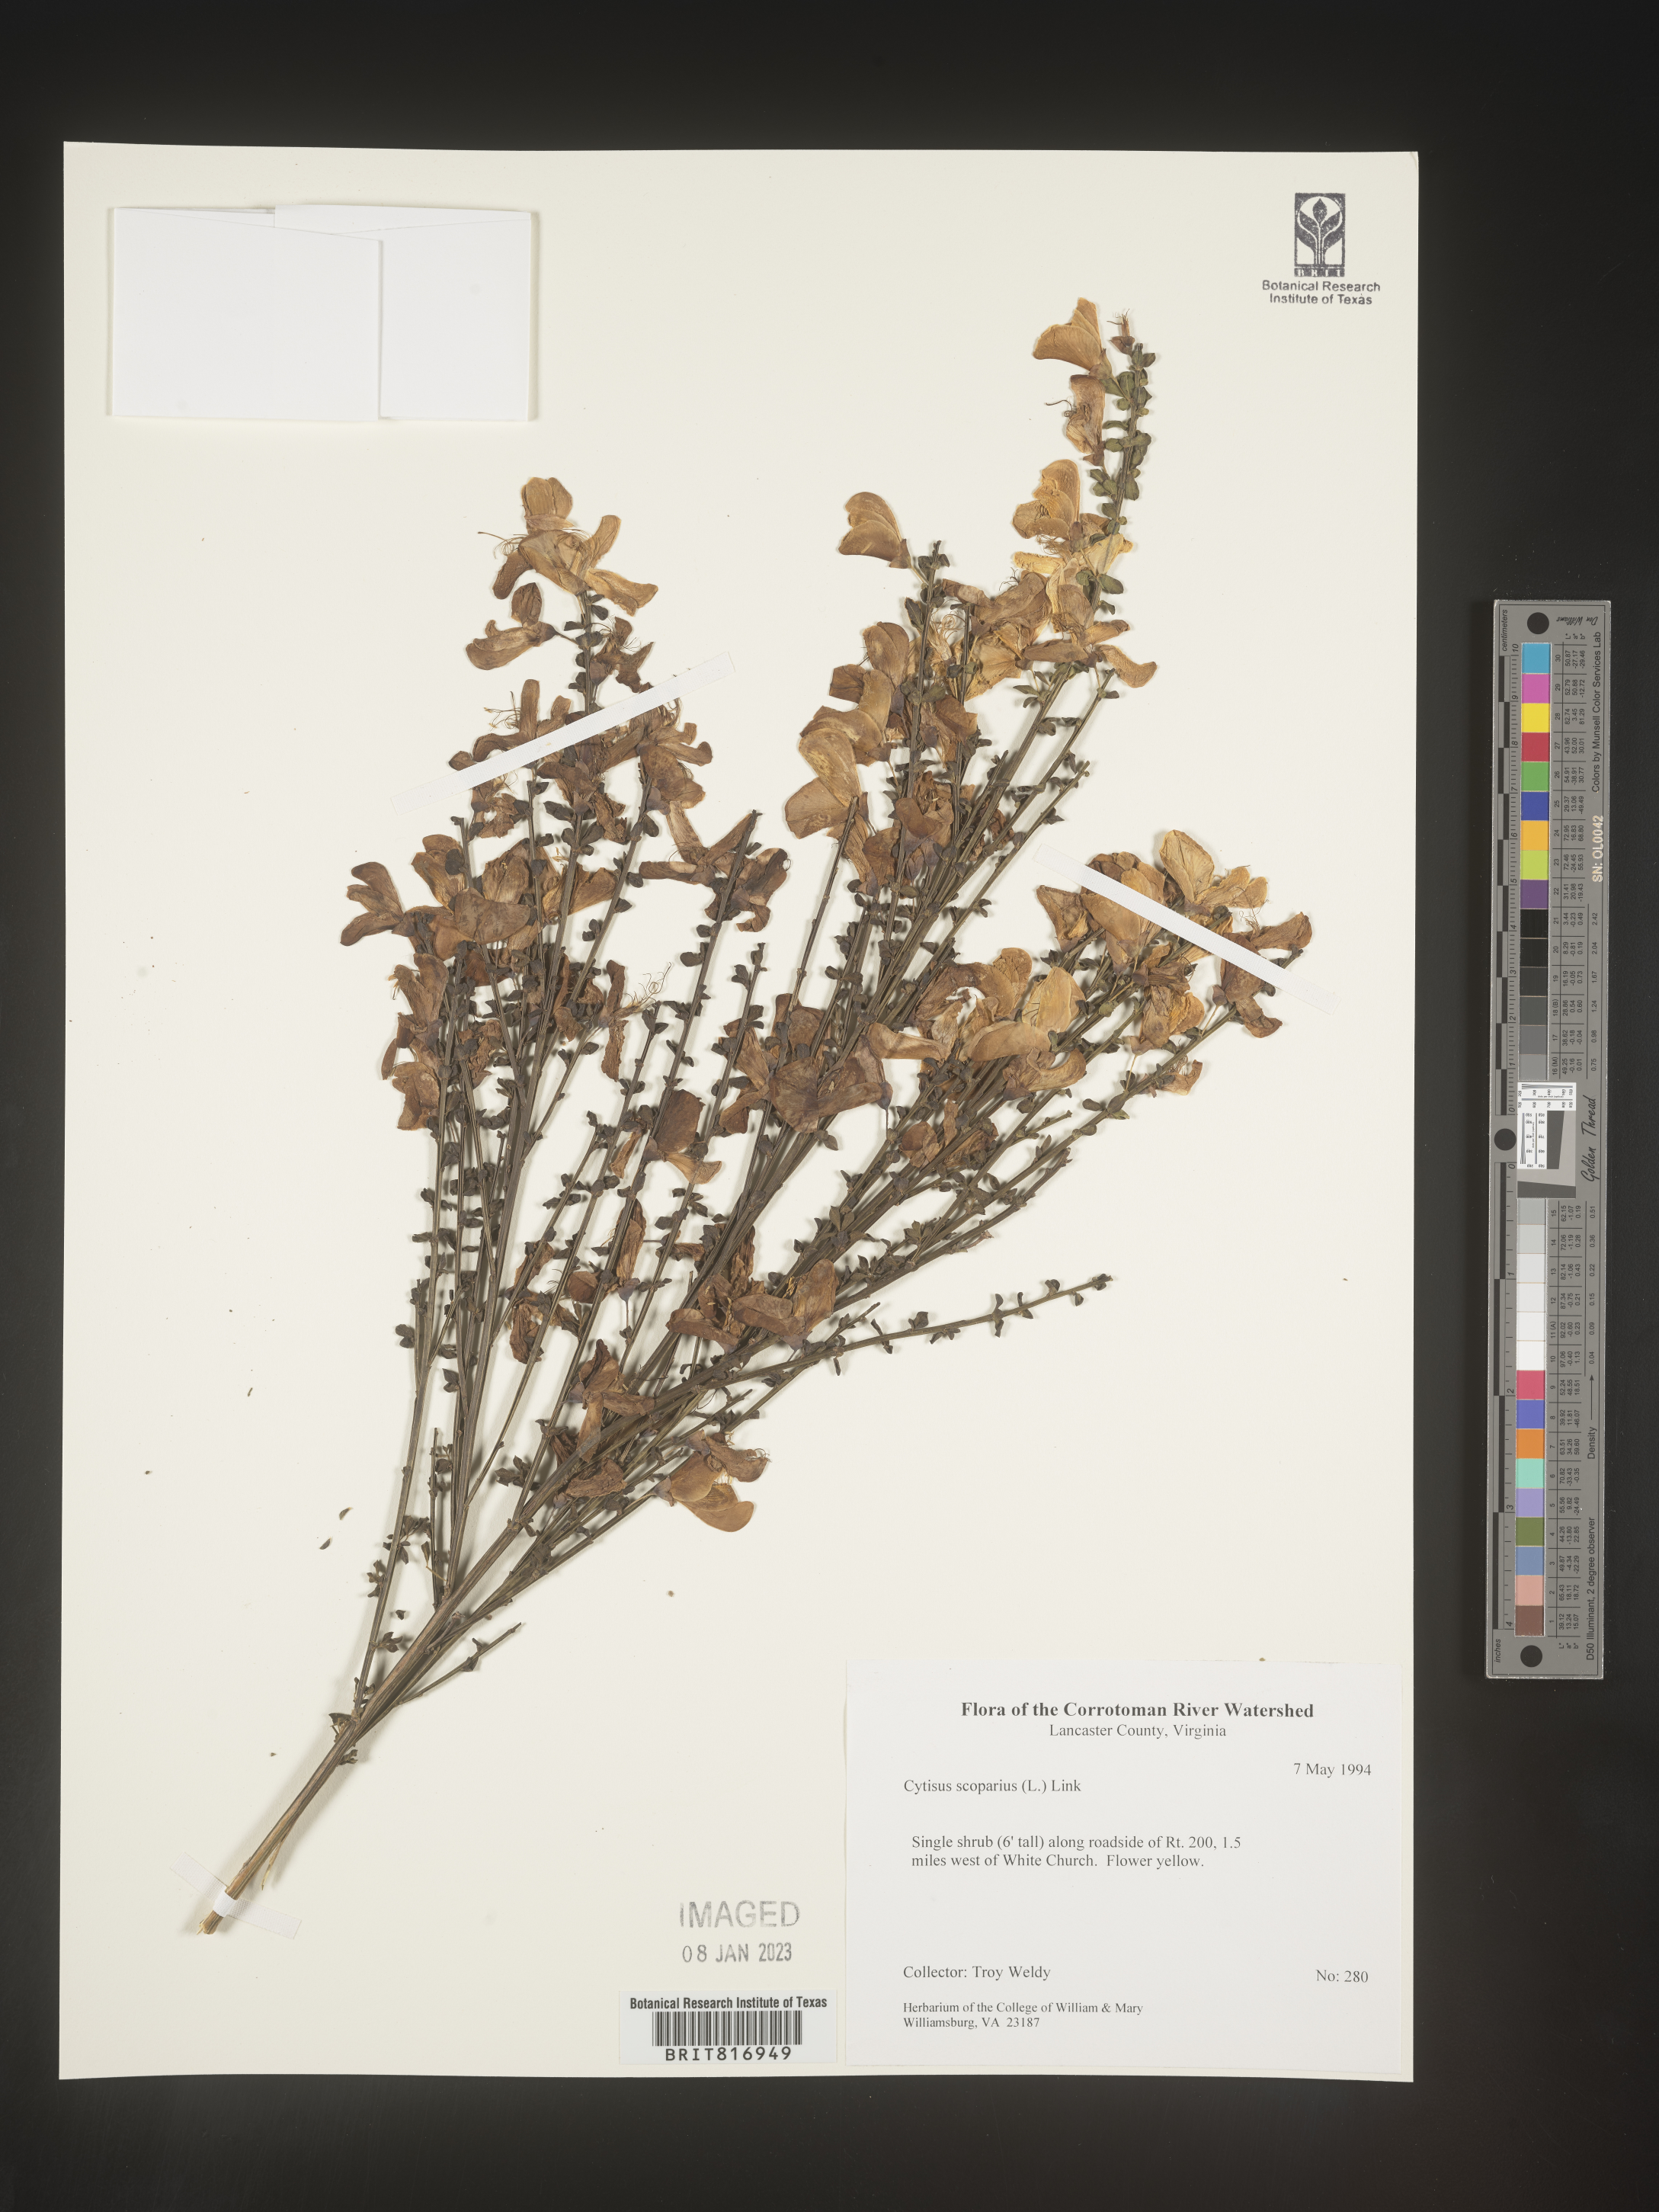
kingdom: Plantae
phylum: Tracheophyta
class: Magnoliopsida
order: Fabales
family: Fabaceae
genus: Cytisus
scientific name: Cytisus
